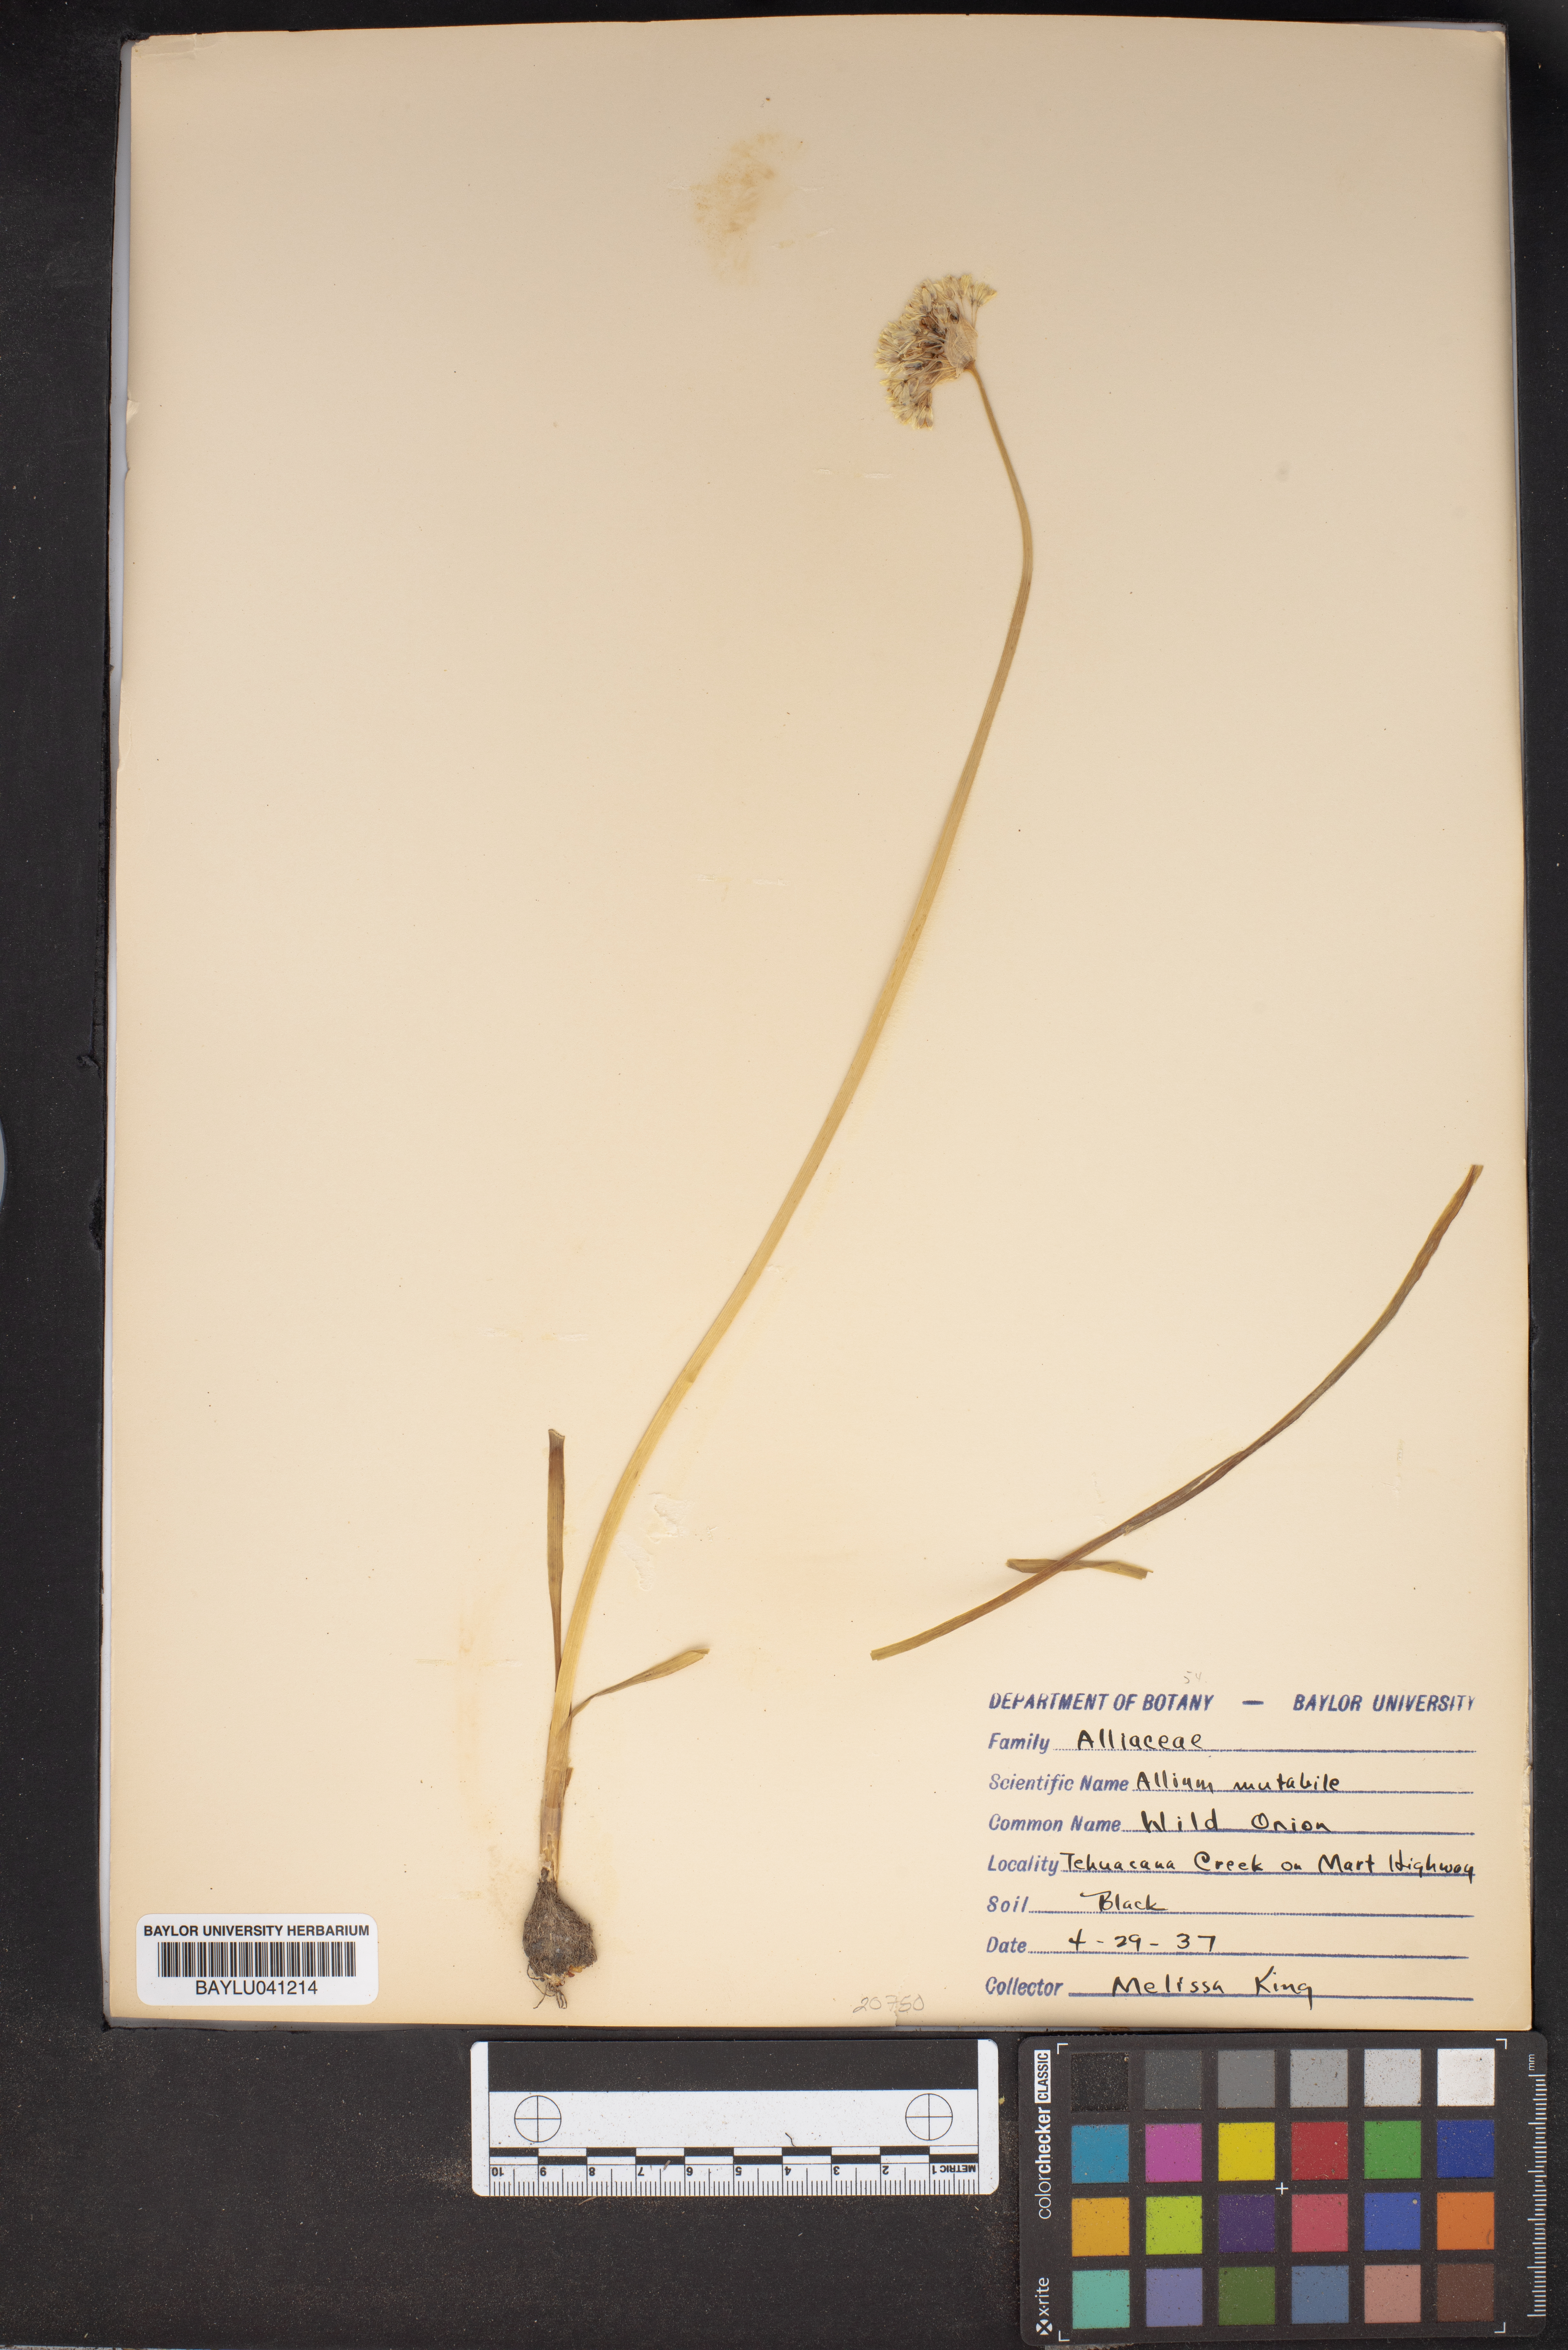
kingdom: Plantae
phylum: Tracheophyta
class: Liliopsida
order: Asparagales
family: Amaryllidaceae
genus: Allium
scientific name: Allium canadense
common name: Meadow garlic
